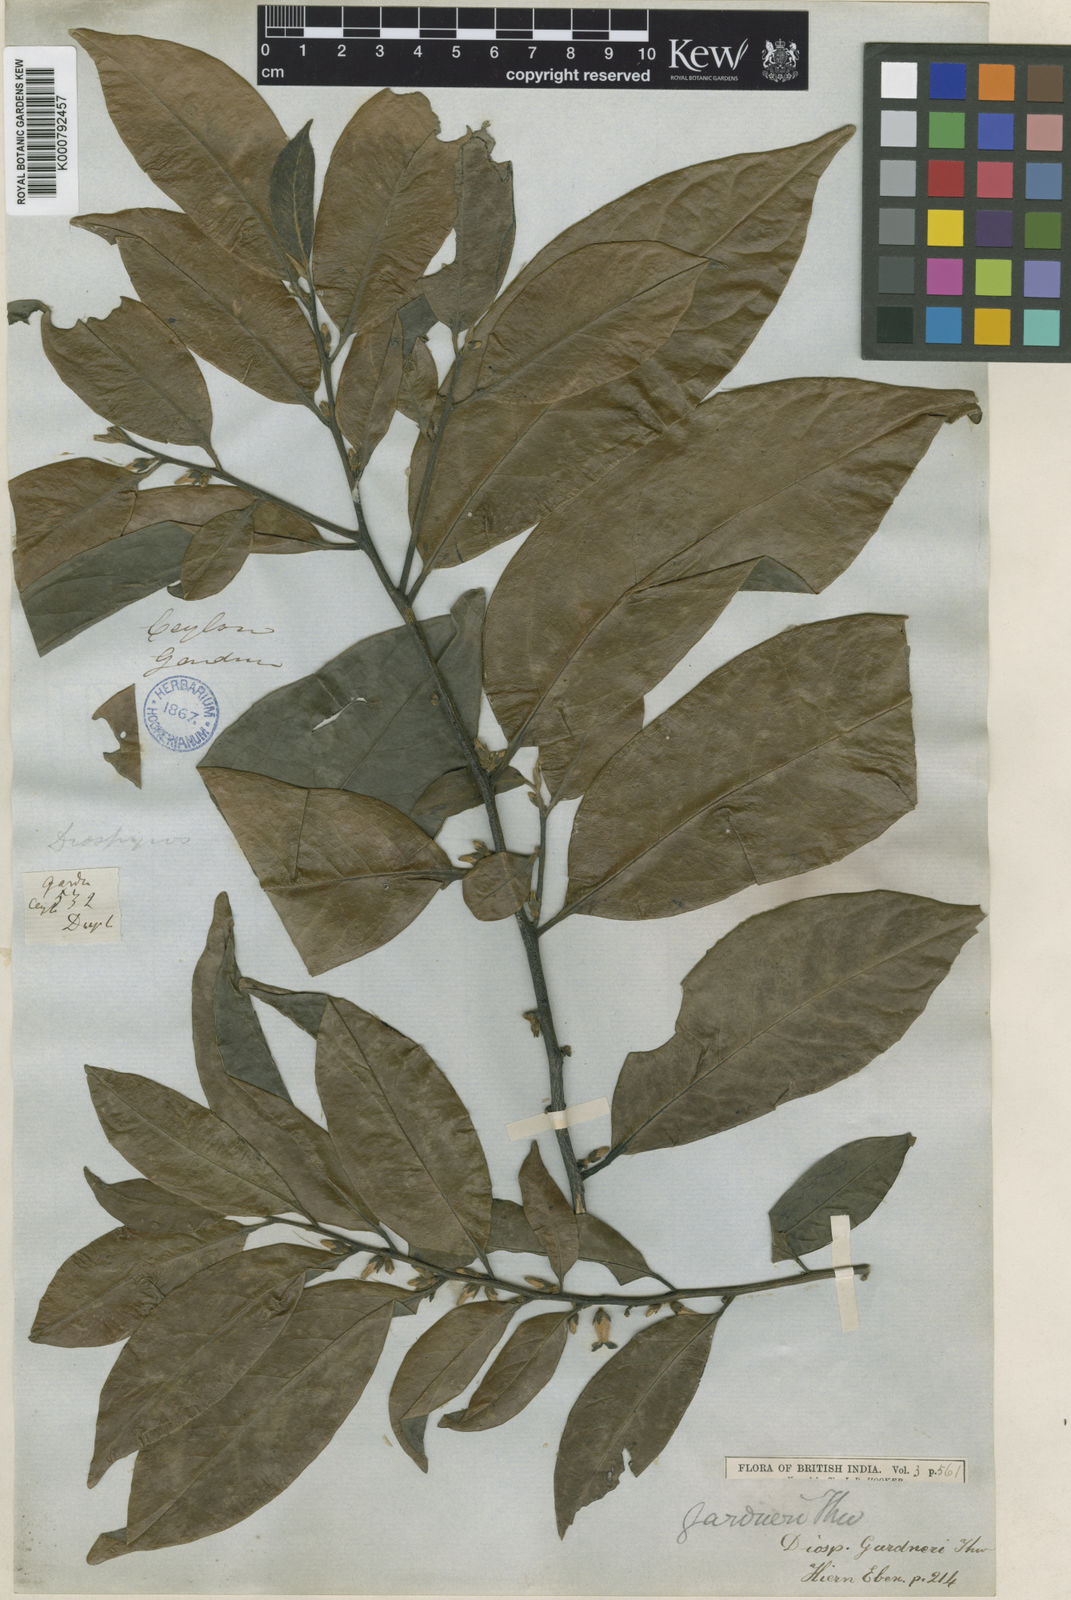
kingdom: Plantae
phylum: Tracheophyta
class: Magnoliopsida
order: Ericales
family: Ebenaceae
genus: Diospyros
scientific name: Diospyros
